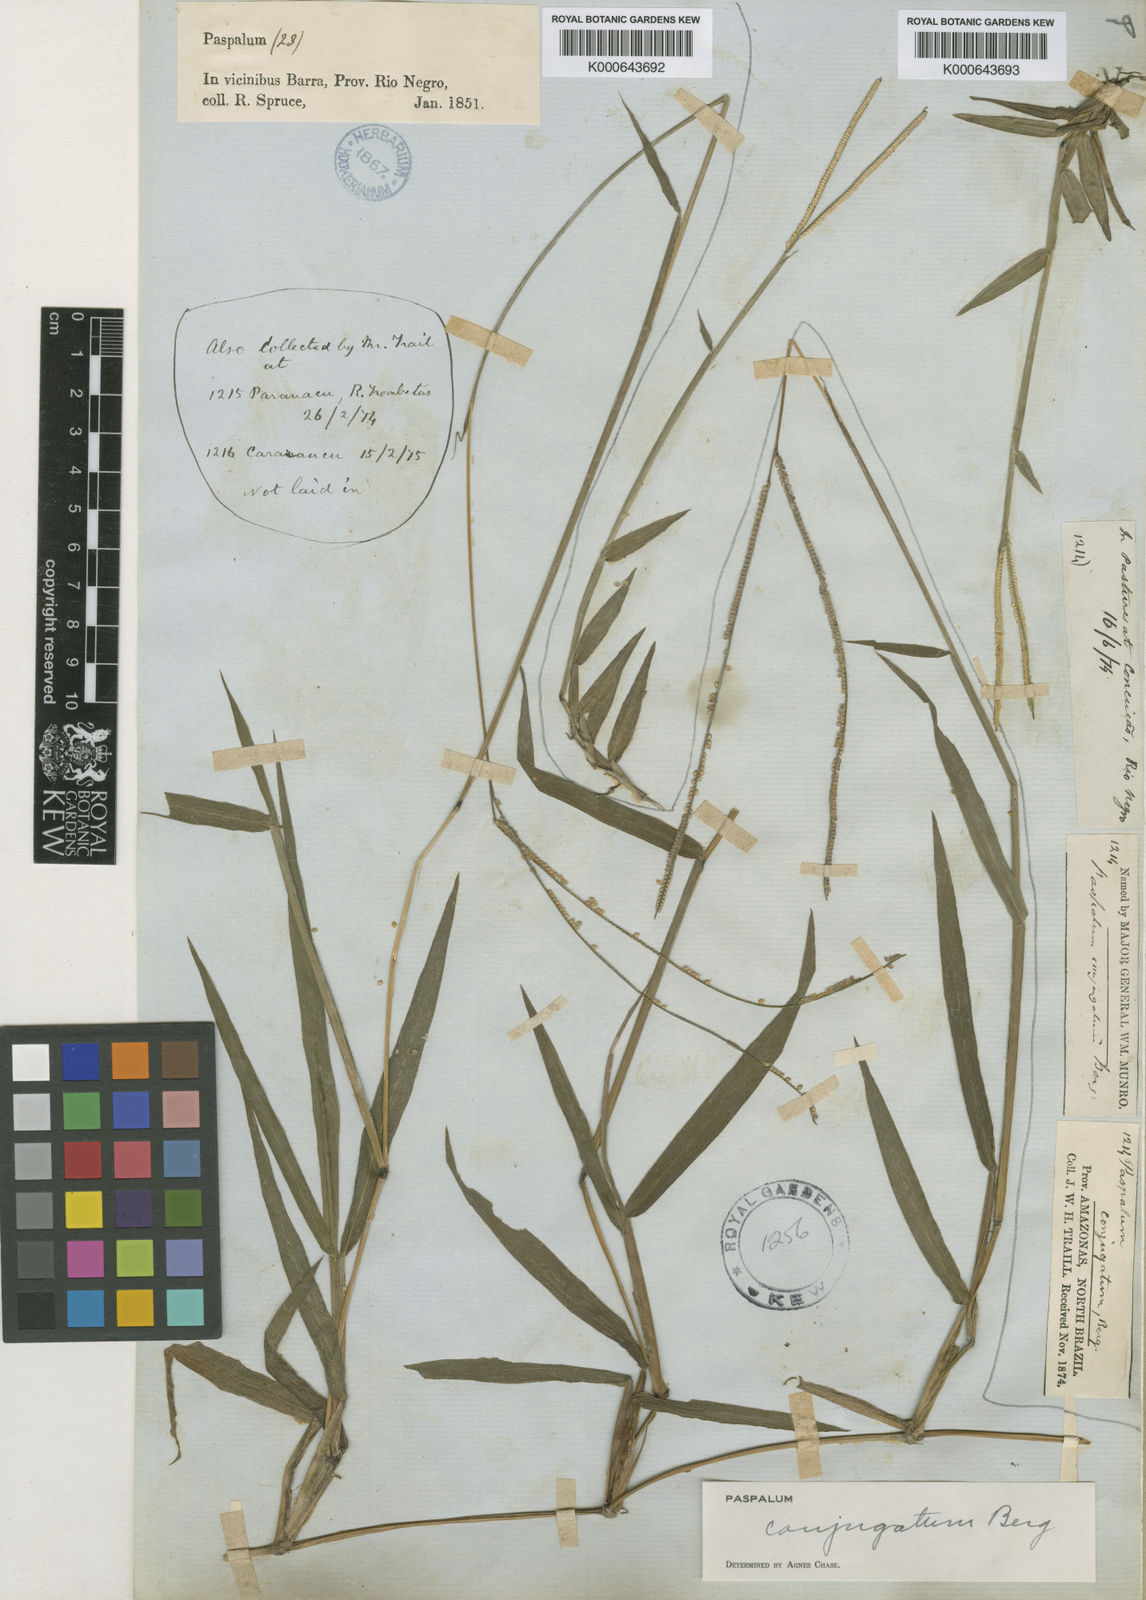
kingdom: Plantae
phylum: Tracheophyta
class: Liliopsida
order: Poales
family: Poaceae
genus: Paspalum
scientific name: Paspalum conjugatum
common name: Hilograss
